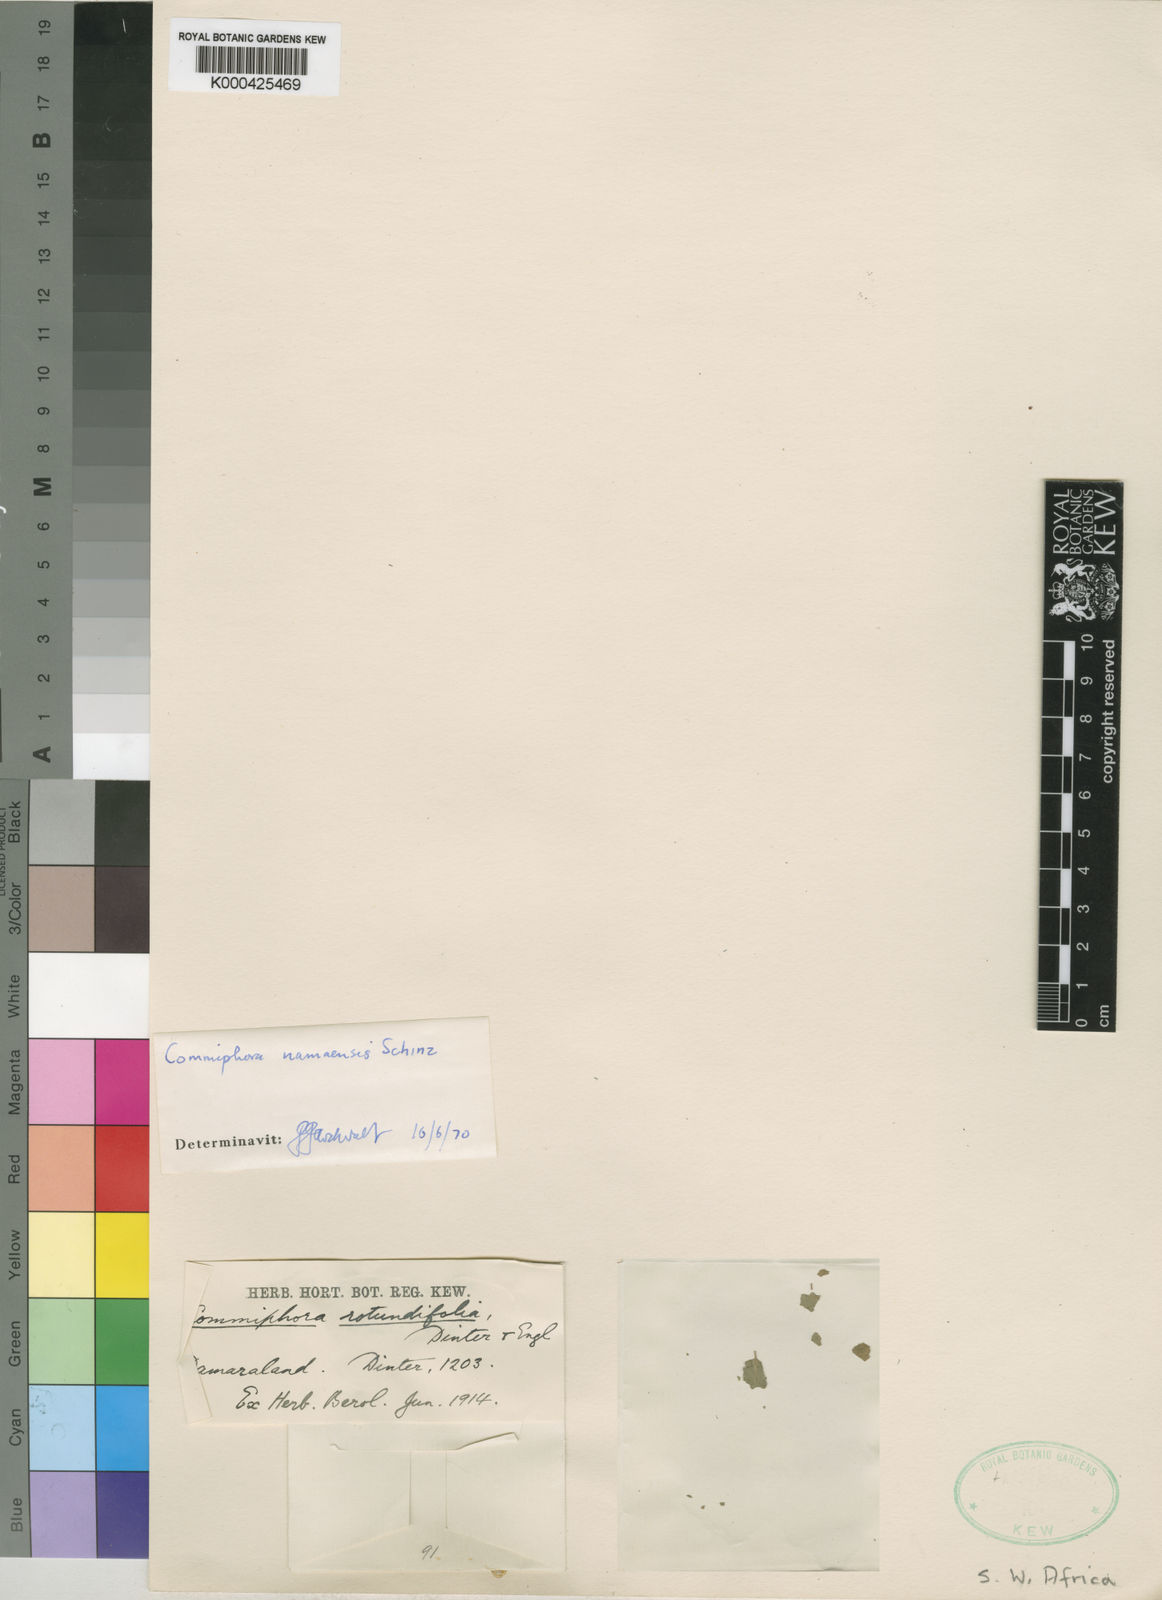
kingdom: Plantae
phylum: Tracheophyta
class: Magnoliopsida
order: Sapindales
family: Burseraceae
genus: Commiphora
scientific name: Commiphora namaensis
